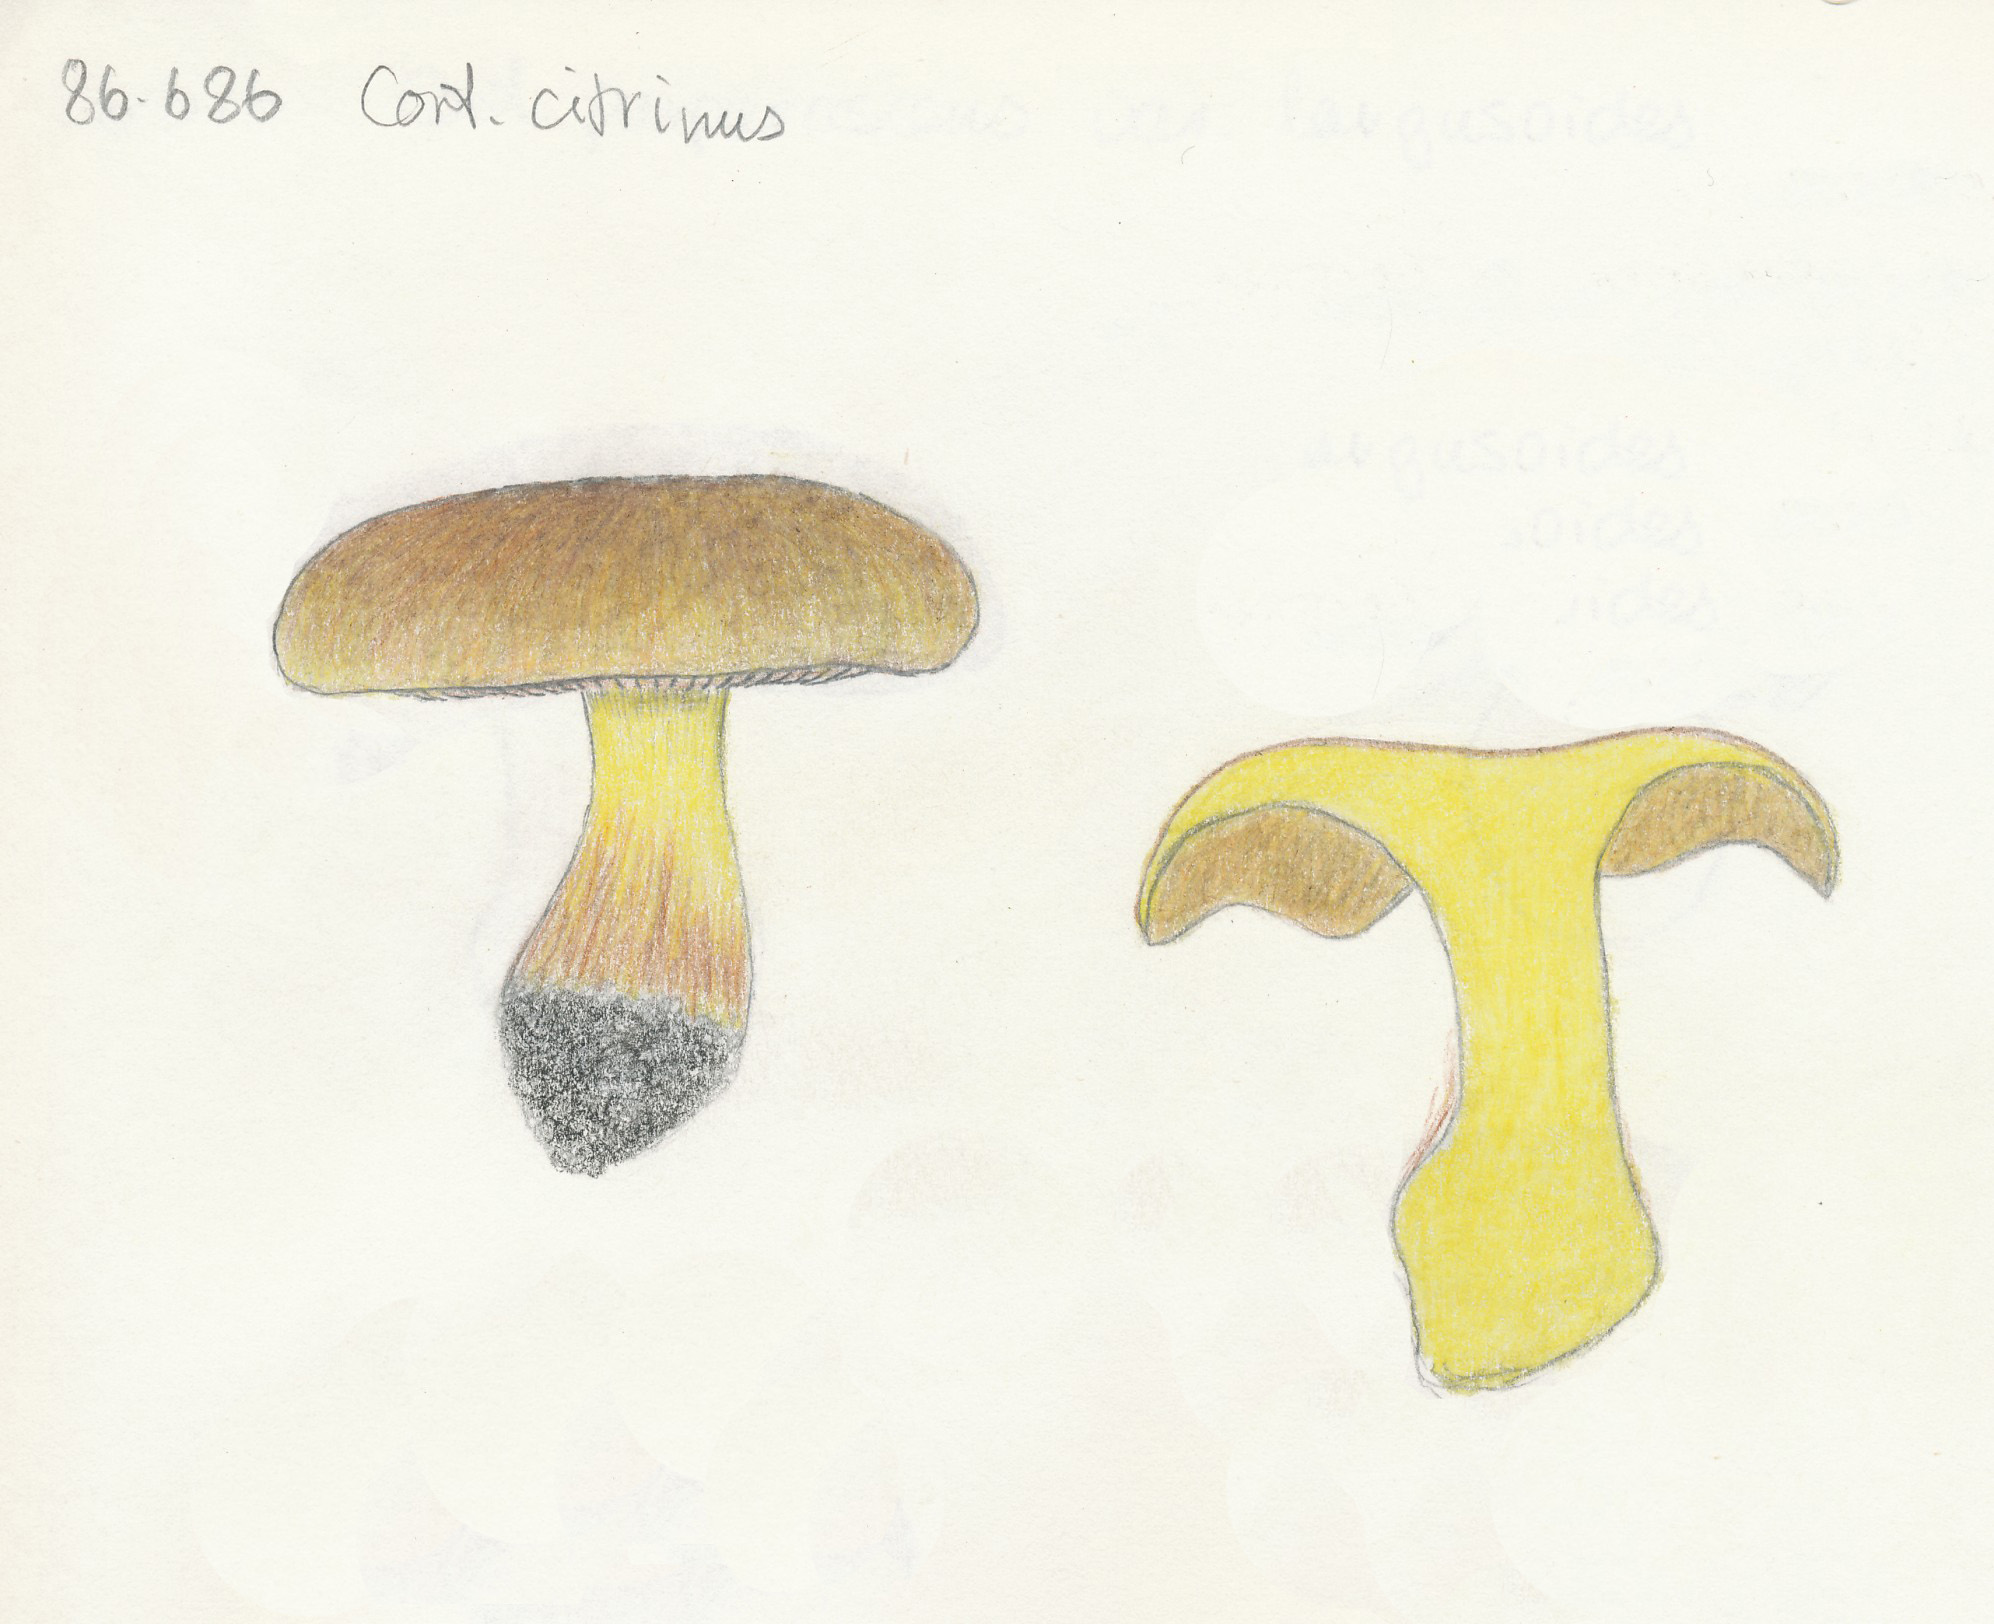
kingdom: Fungi
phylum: Basidiomycota
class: Agaricomycetes
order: Agaricales
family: Cortinariaceae
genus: Calonarius
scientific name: Calonarius citrinus
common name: citrongul slørhat
